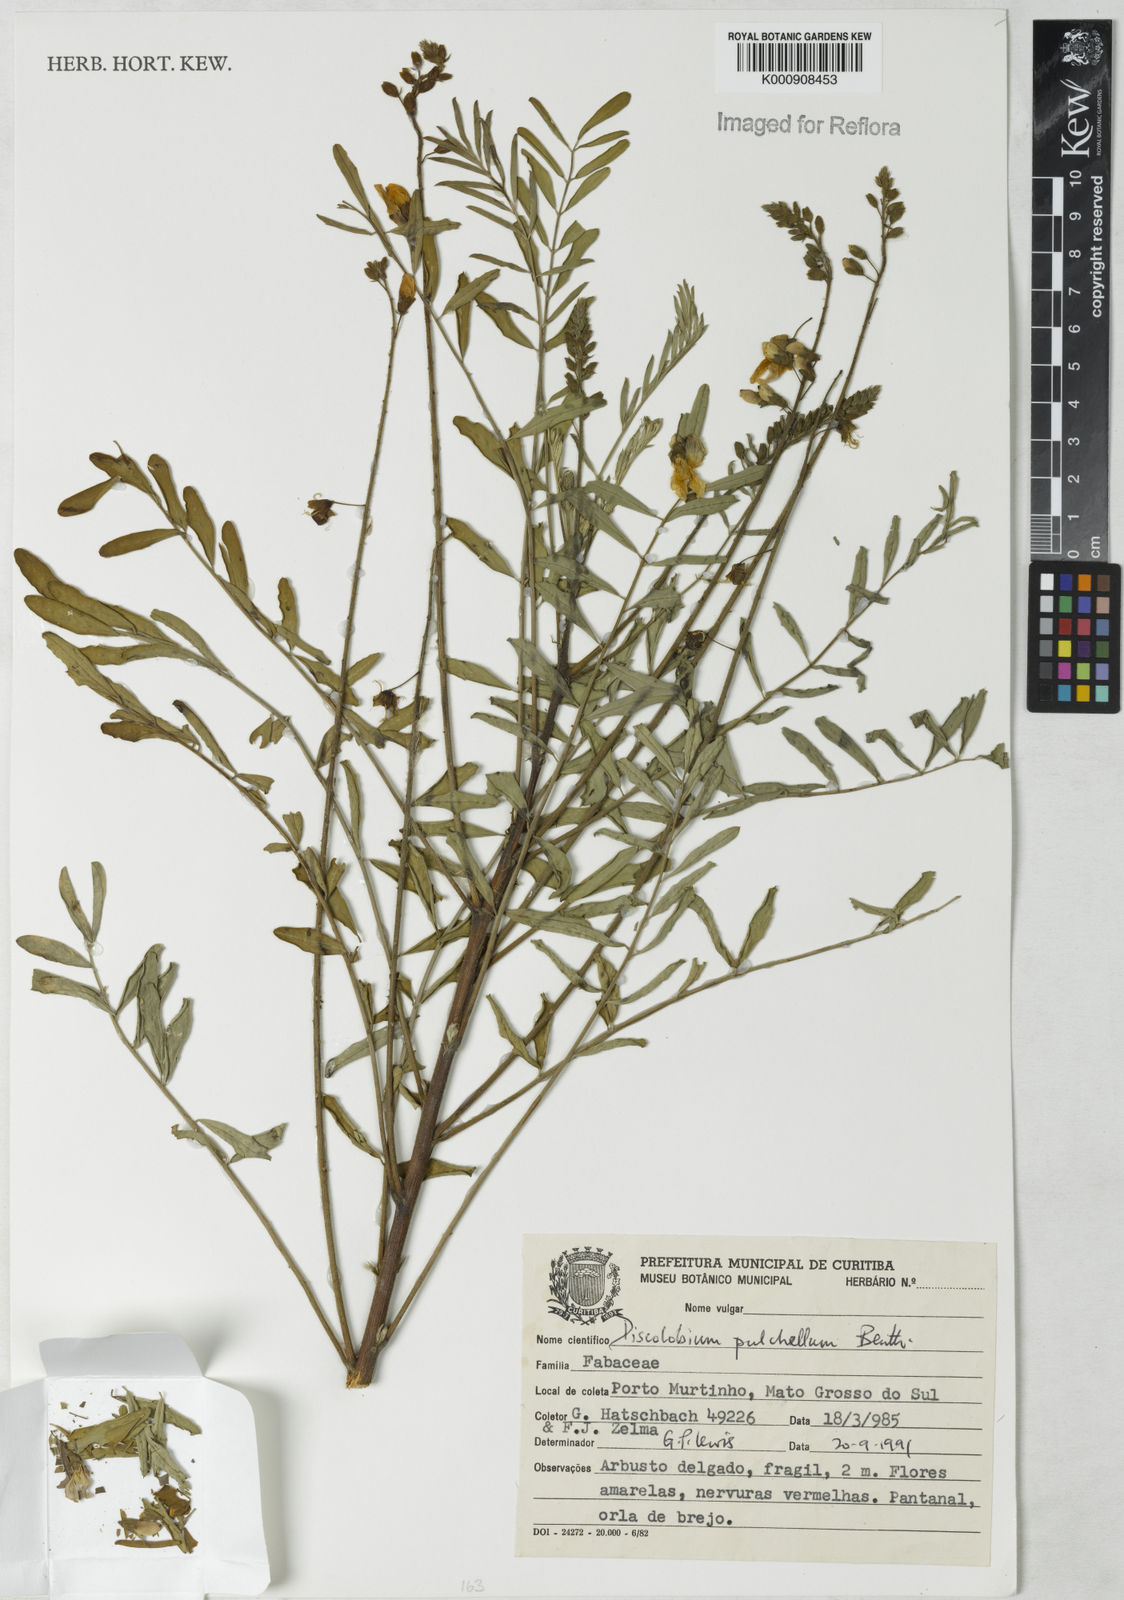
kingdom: Plantae
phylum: Tracheophyta
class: Magnoliopsida
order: Fabales
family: Fabaceae
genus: Discolobium
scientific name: Discolobium pulchellum
